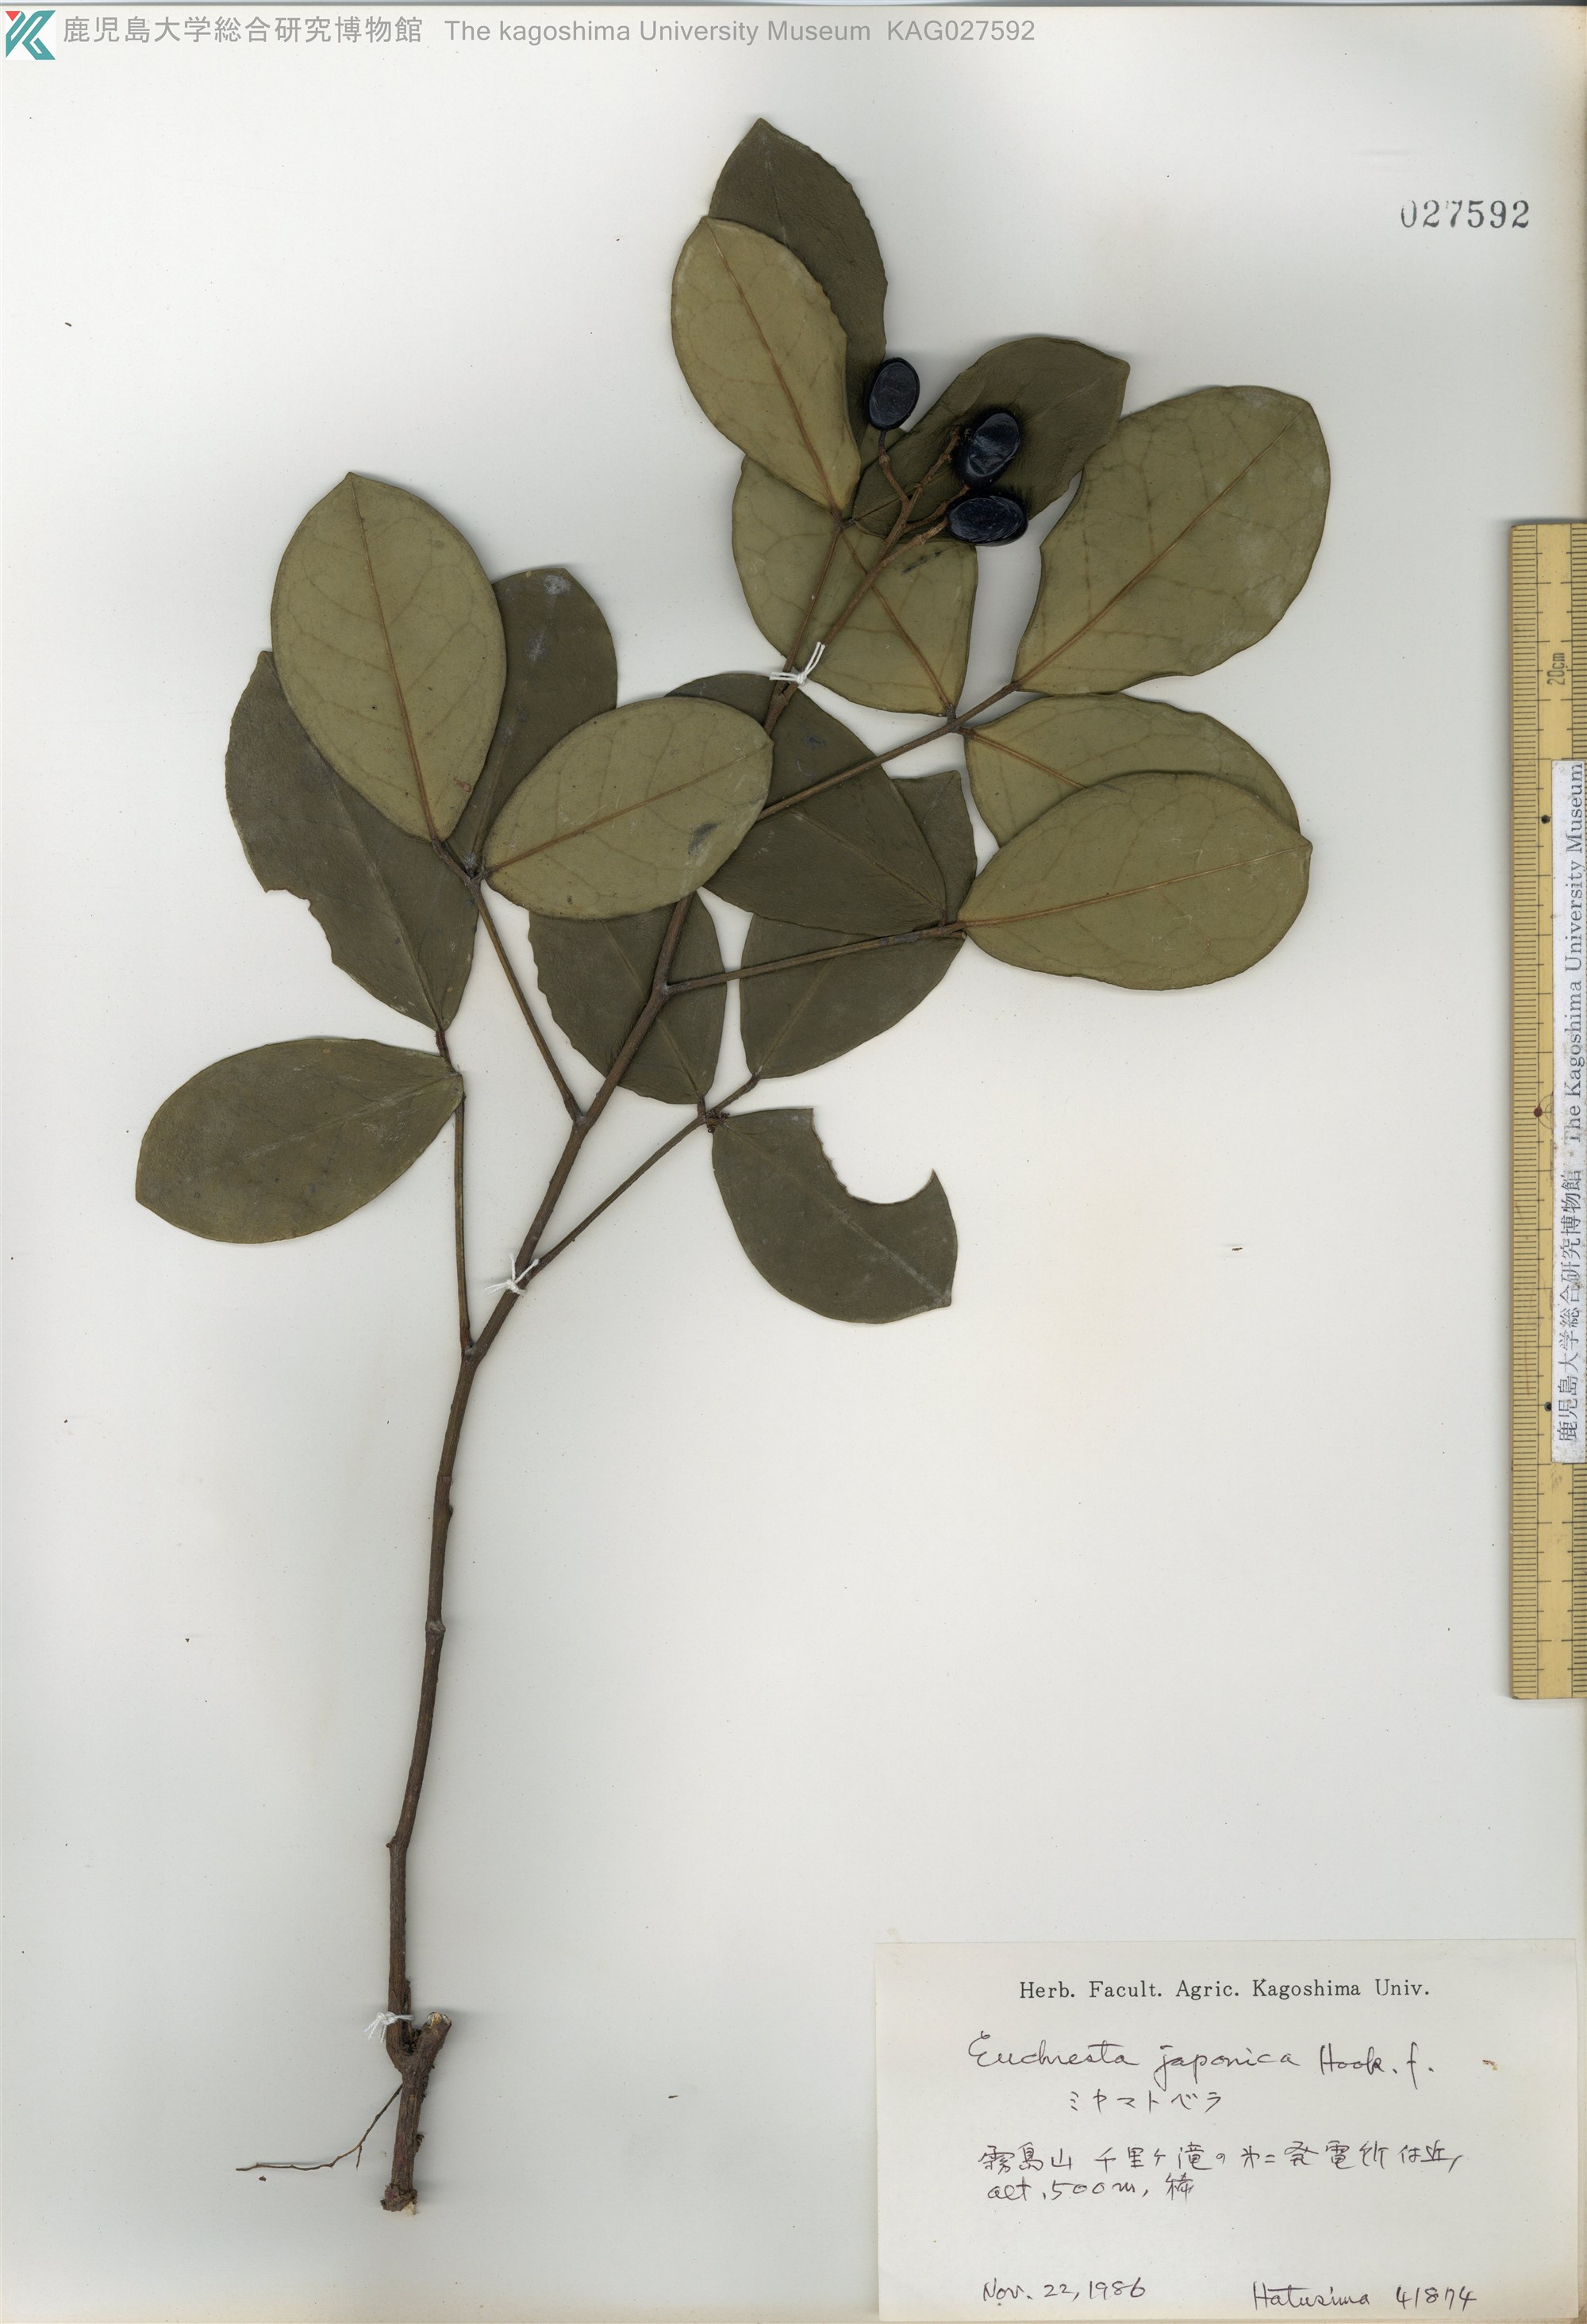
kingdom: Plantae
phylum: Tracheophyta
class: Magnoliopsida
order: Fabales
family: Fabaceae
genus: Euchresta
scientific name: Euchresta japonica
